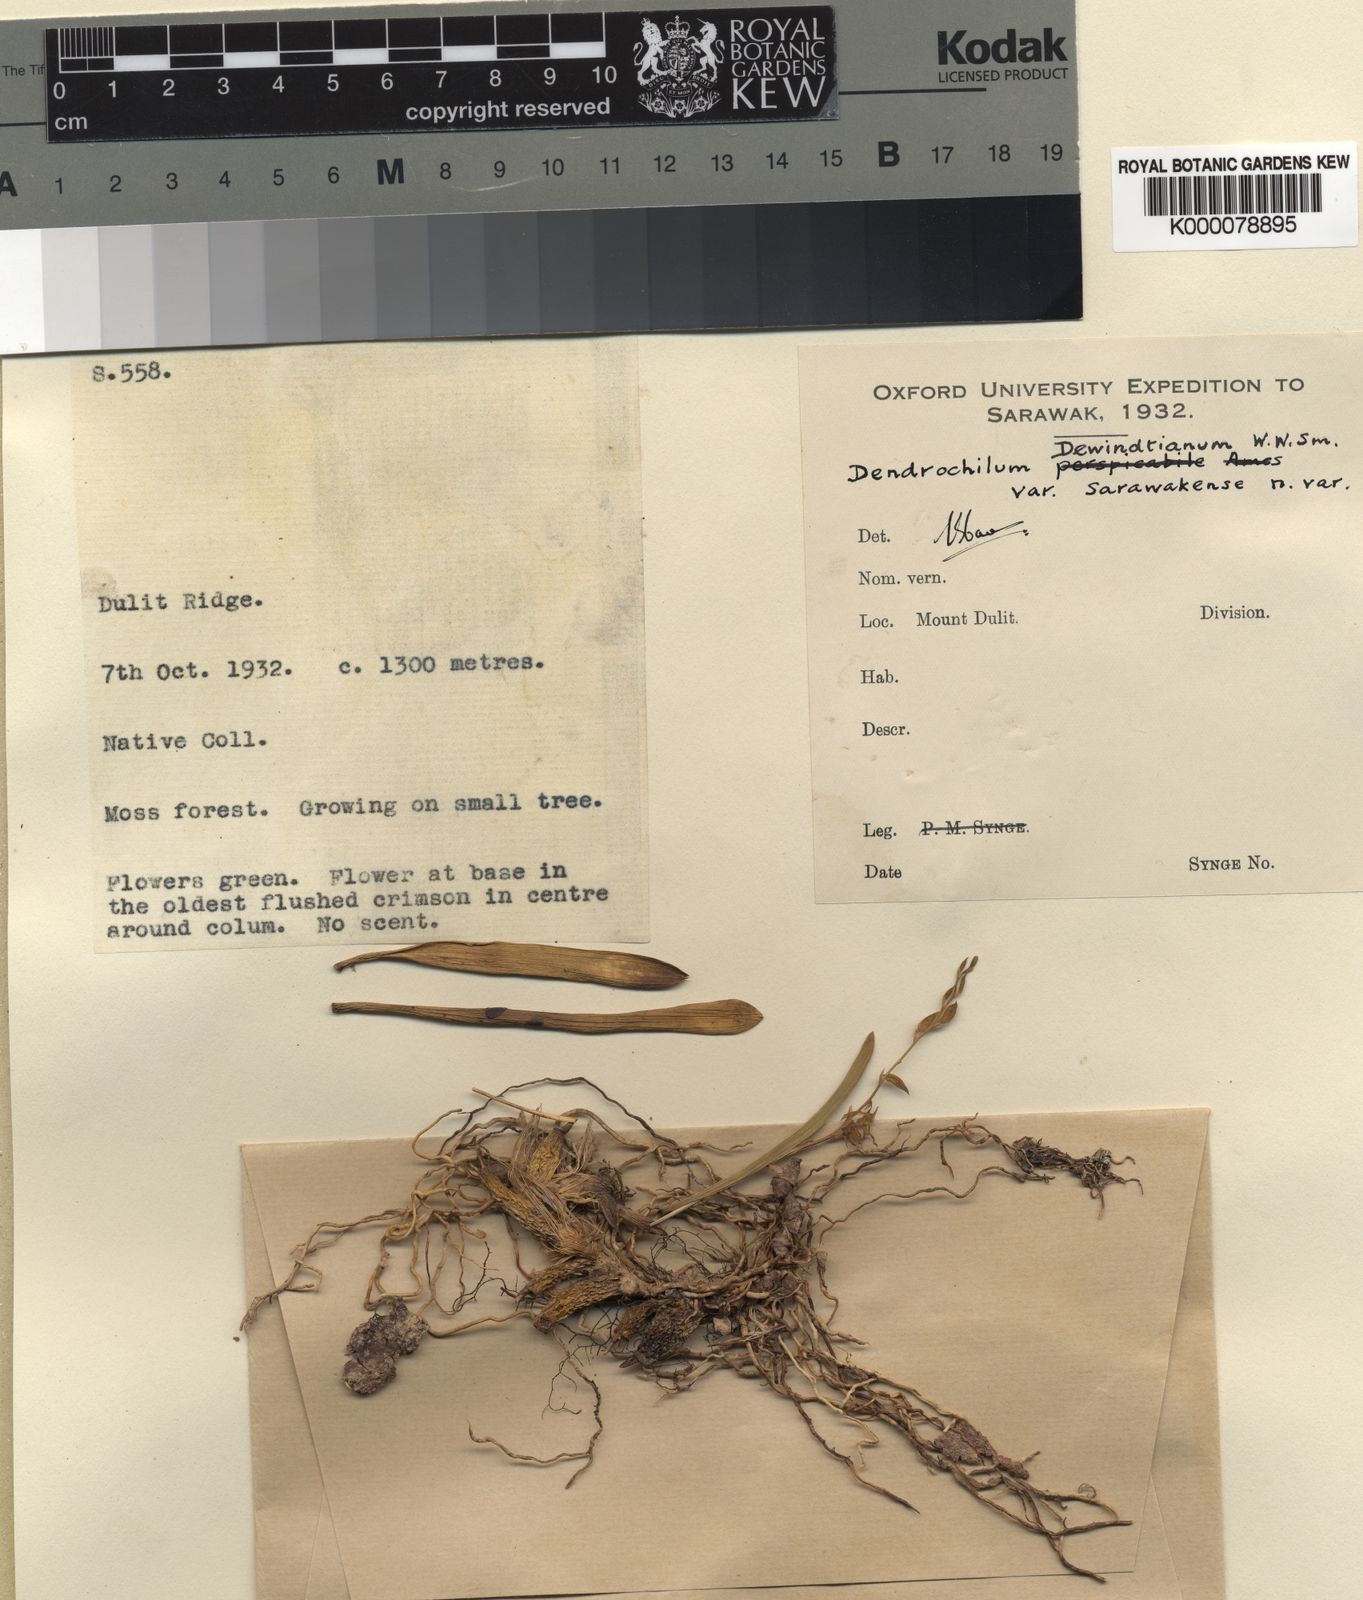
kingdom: Plantae
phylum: Tracheophyta
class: Liliopsida
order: Asparagales
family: Orchidaceae
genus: Coelogyne
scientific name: Coelogyne dewindtiana
